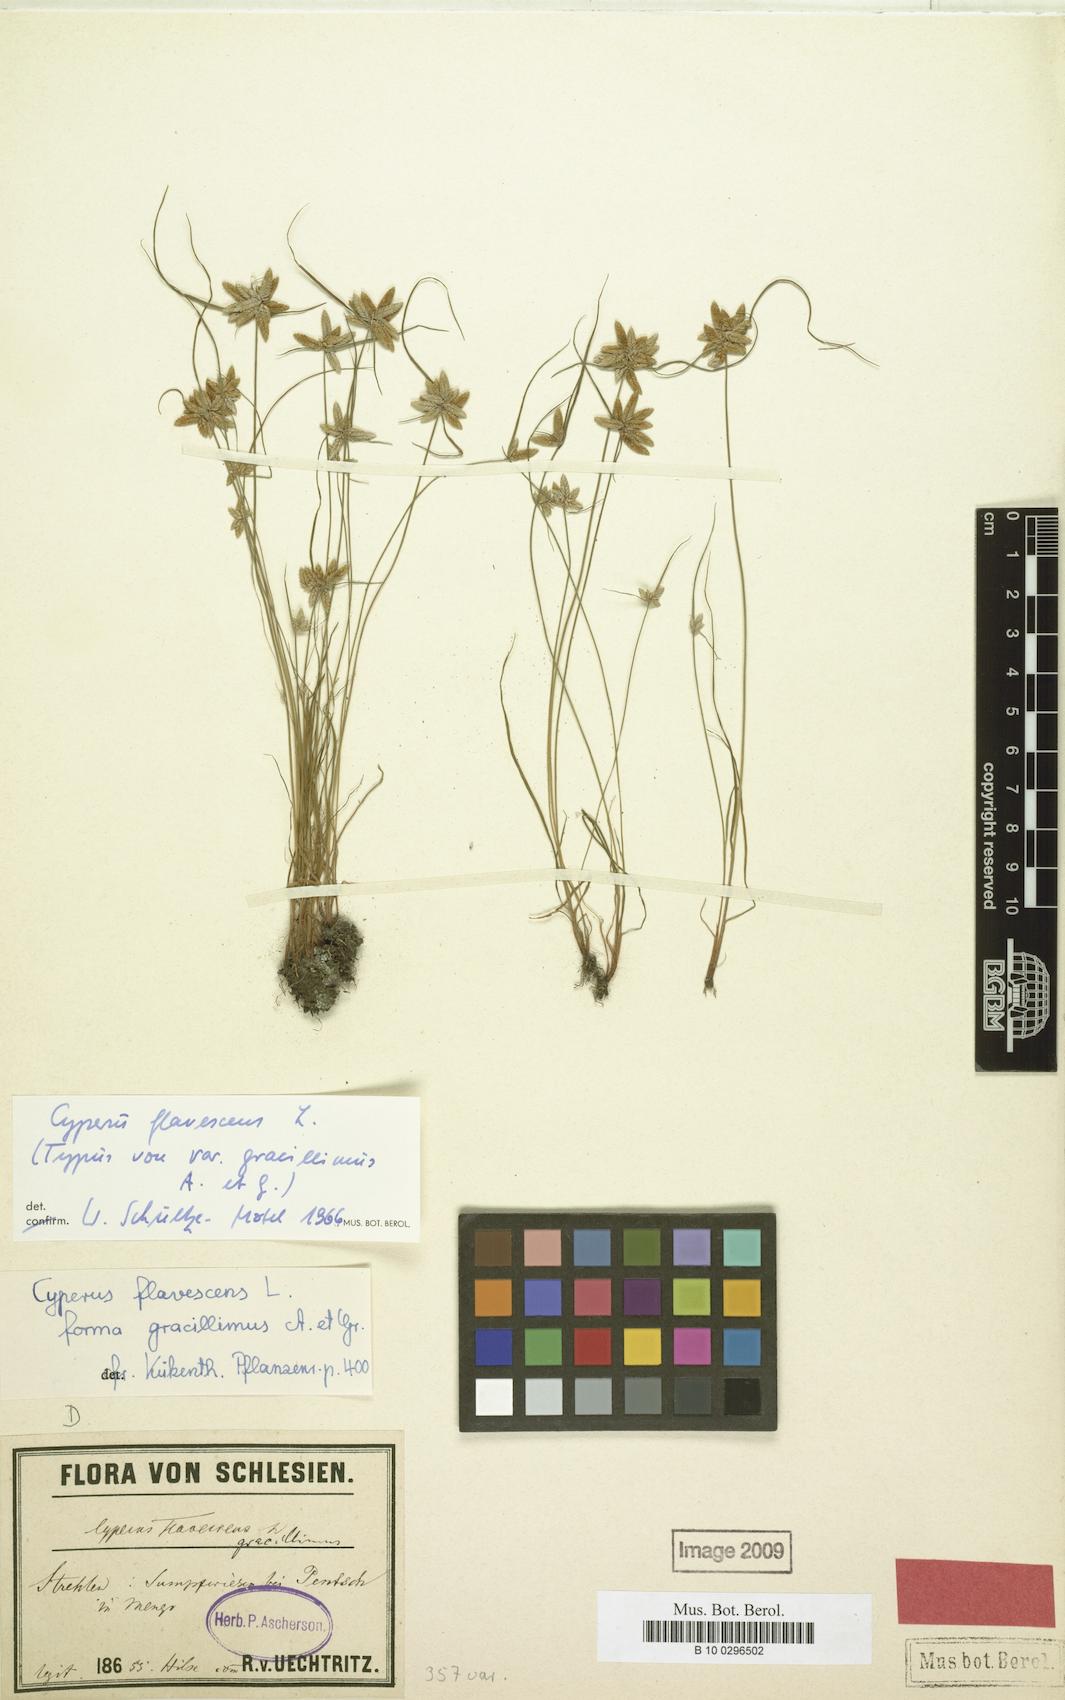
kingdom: Plantae
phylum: Tracheophyta
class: Liliopsida
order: Poales
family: Cyperaceae
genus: Cyperus
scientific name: Cyperus flavescens
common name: Yellow galingale
